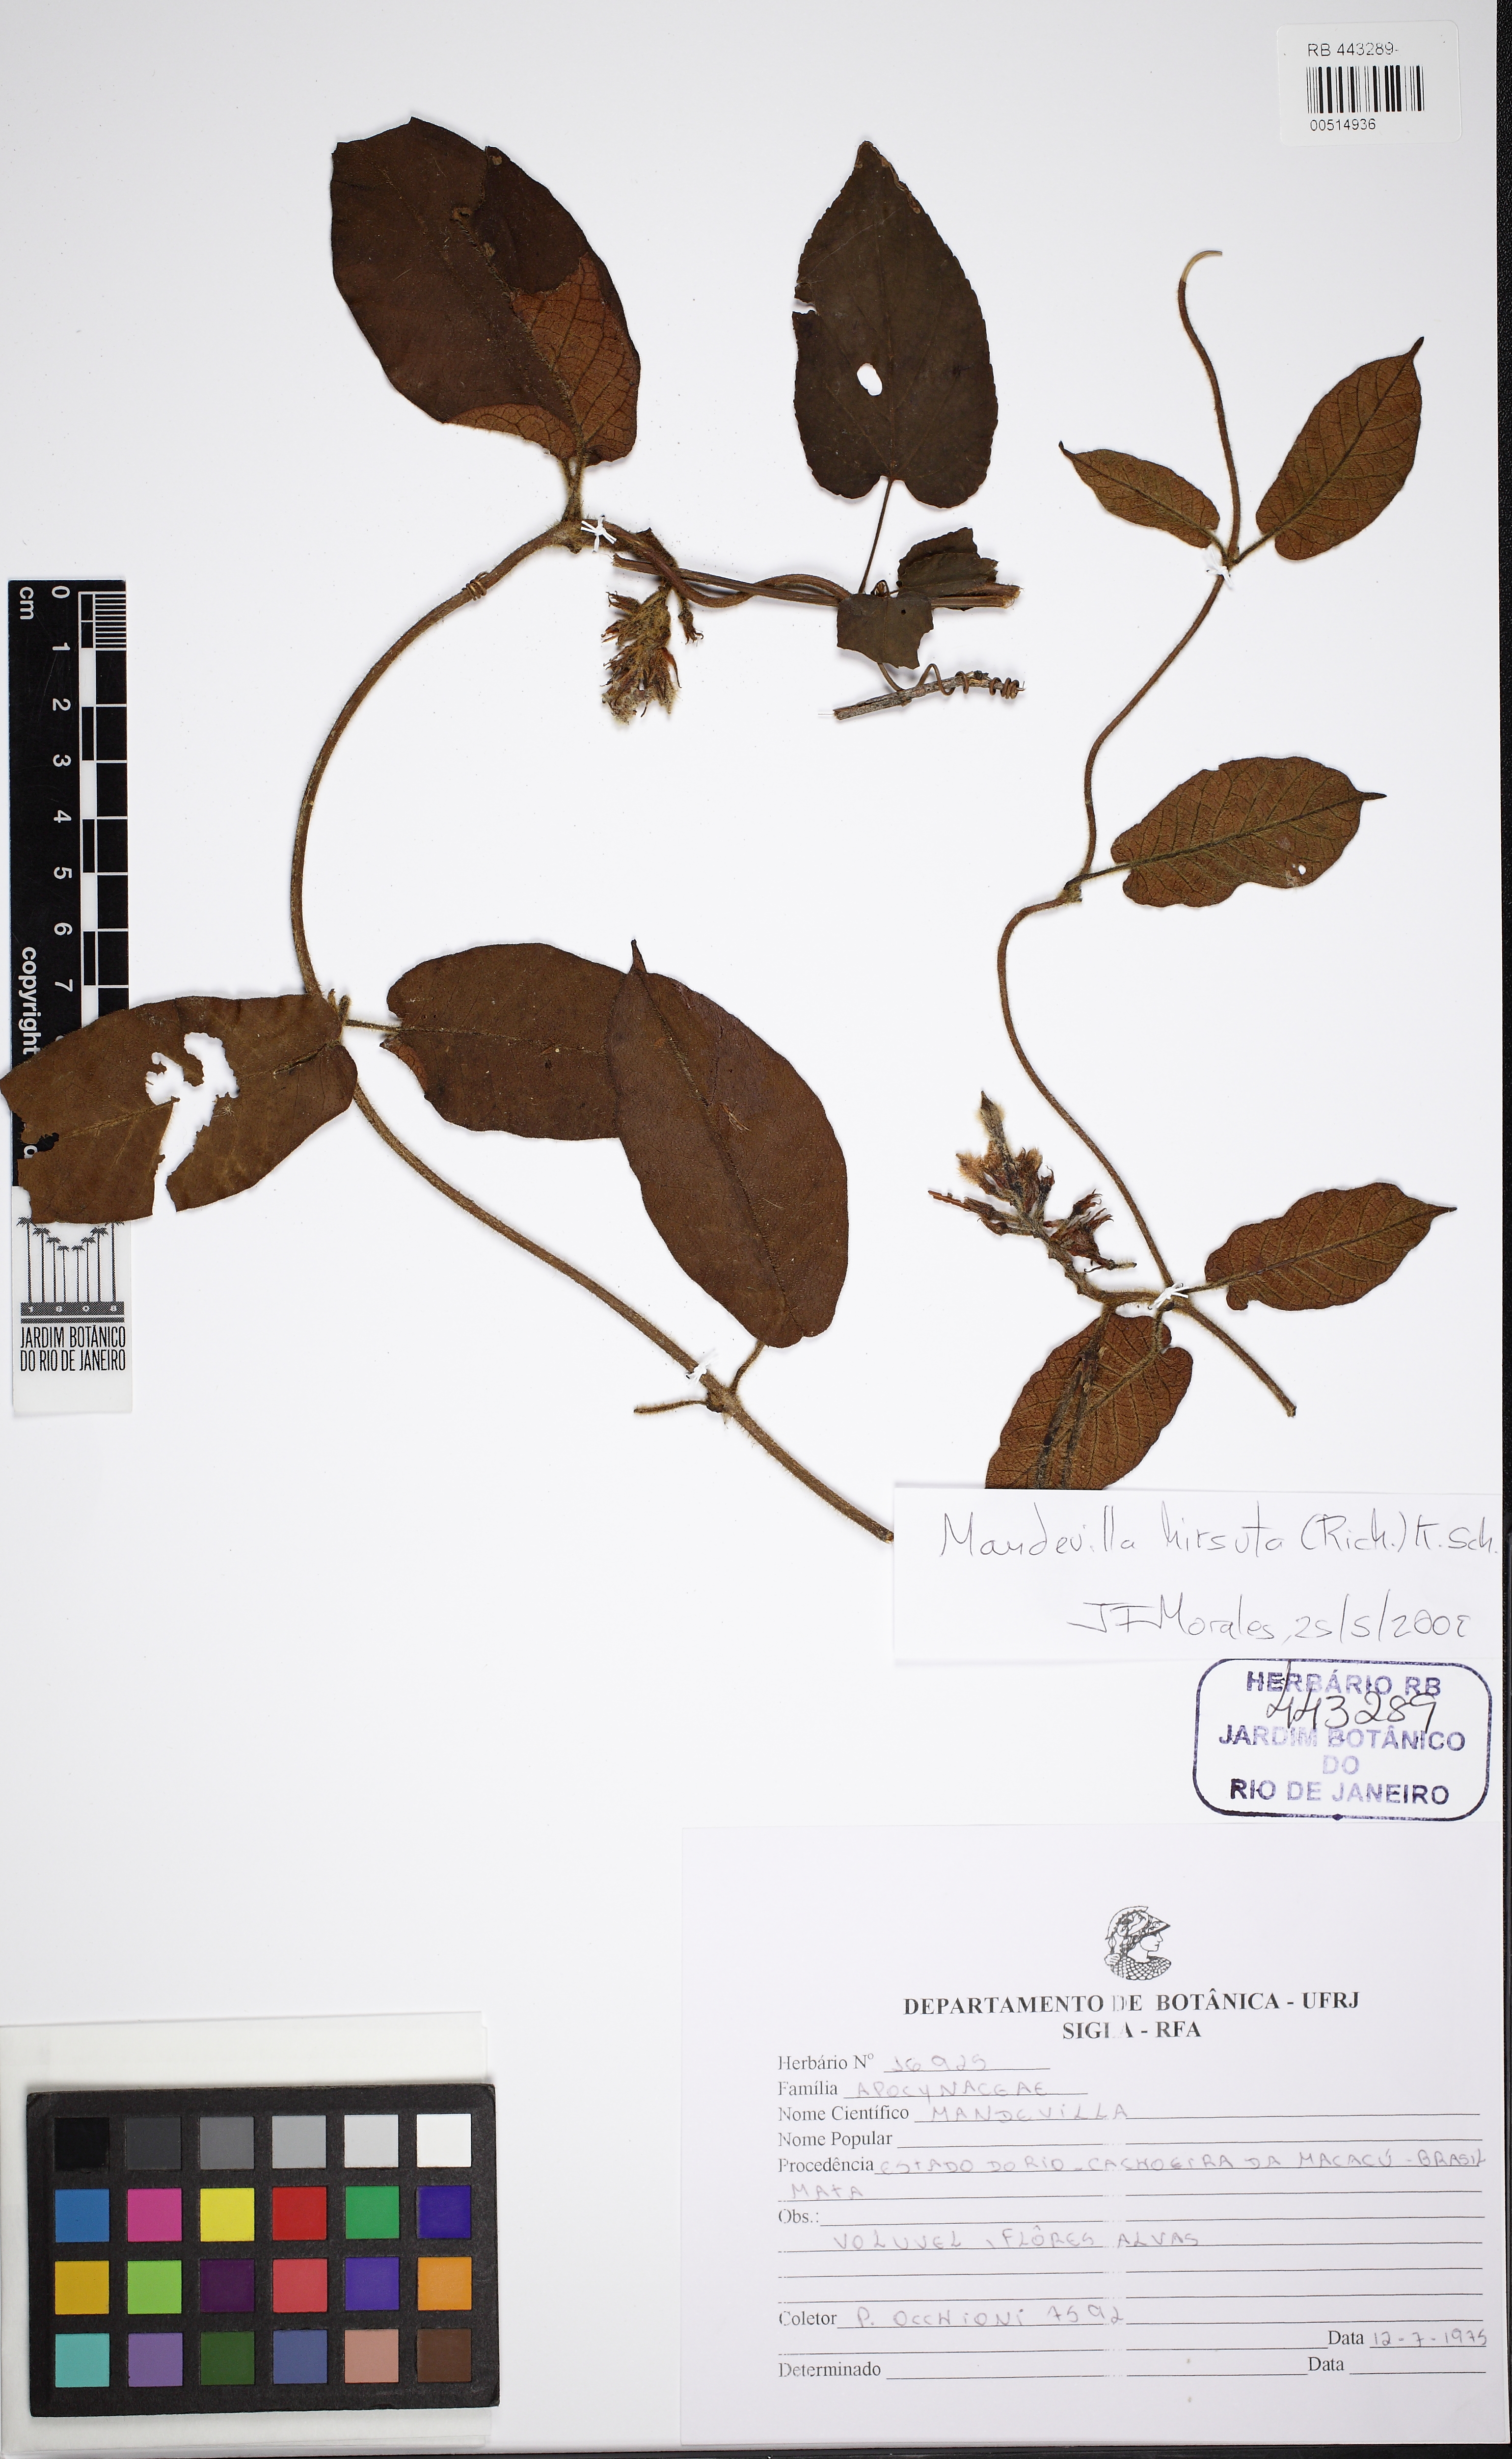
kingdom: Plantae
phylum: Tracheophyta
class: Magnoliopsida
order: Gentianales
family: Apocynaceae
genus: Mandevilla
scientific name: Mandevilla hirsuta
